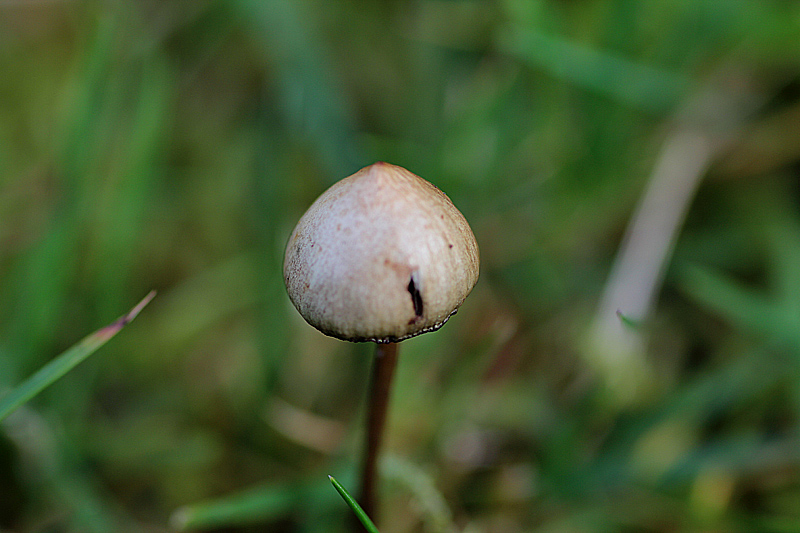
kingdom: Fungi
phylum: Basidiomycota
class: Agaricomycetes
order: Agaricales
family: Hymenogastraceae
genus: Psilocybe
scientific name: Psilocybe semilanceata
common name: spids nøgenhat
